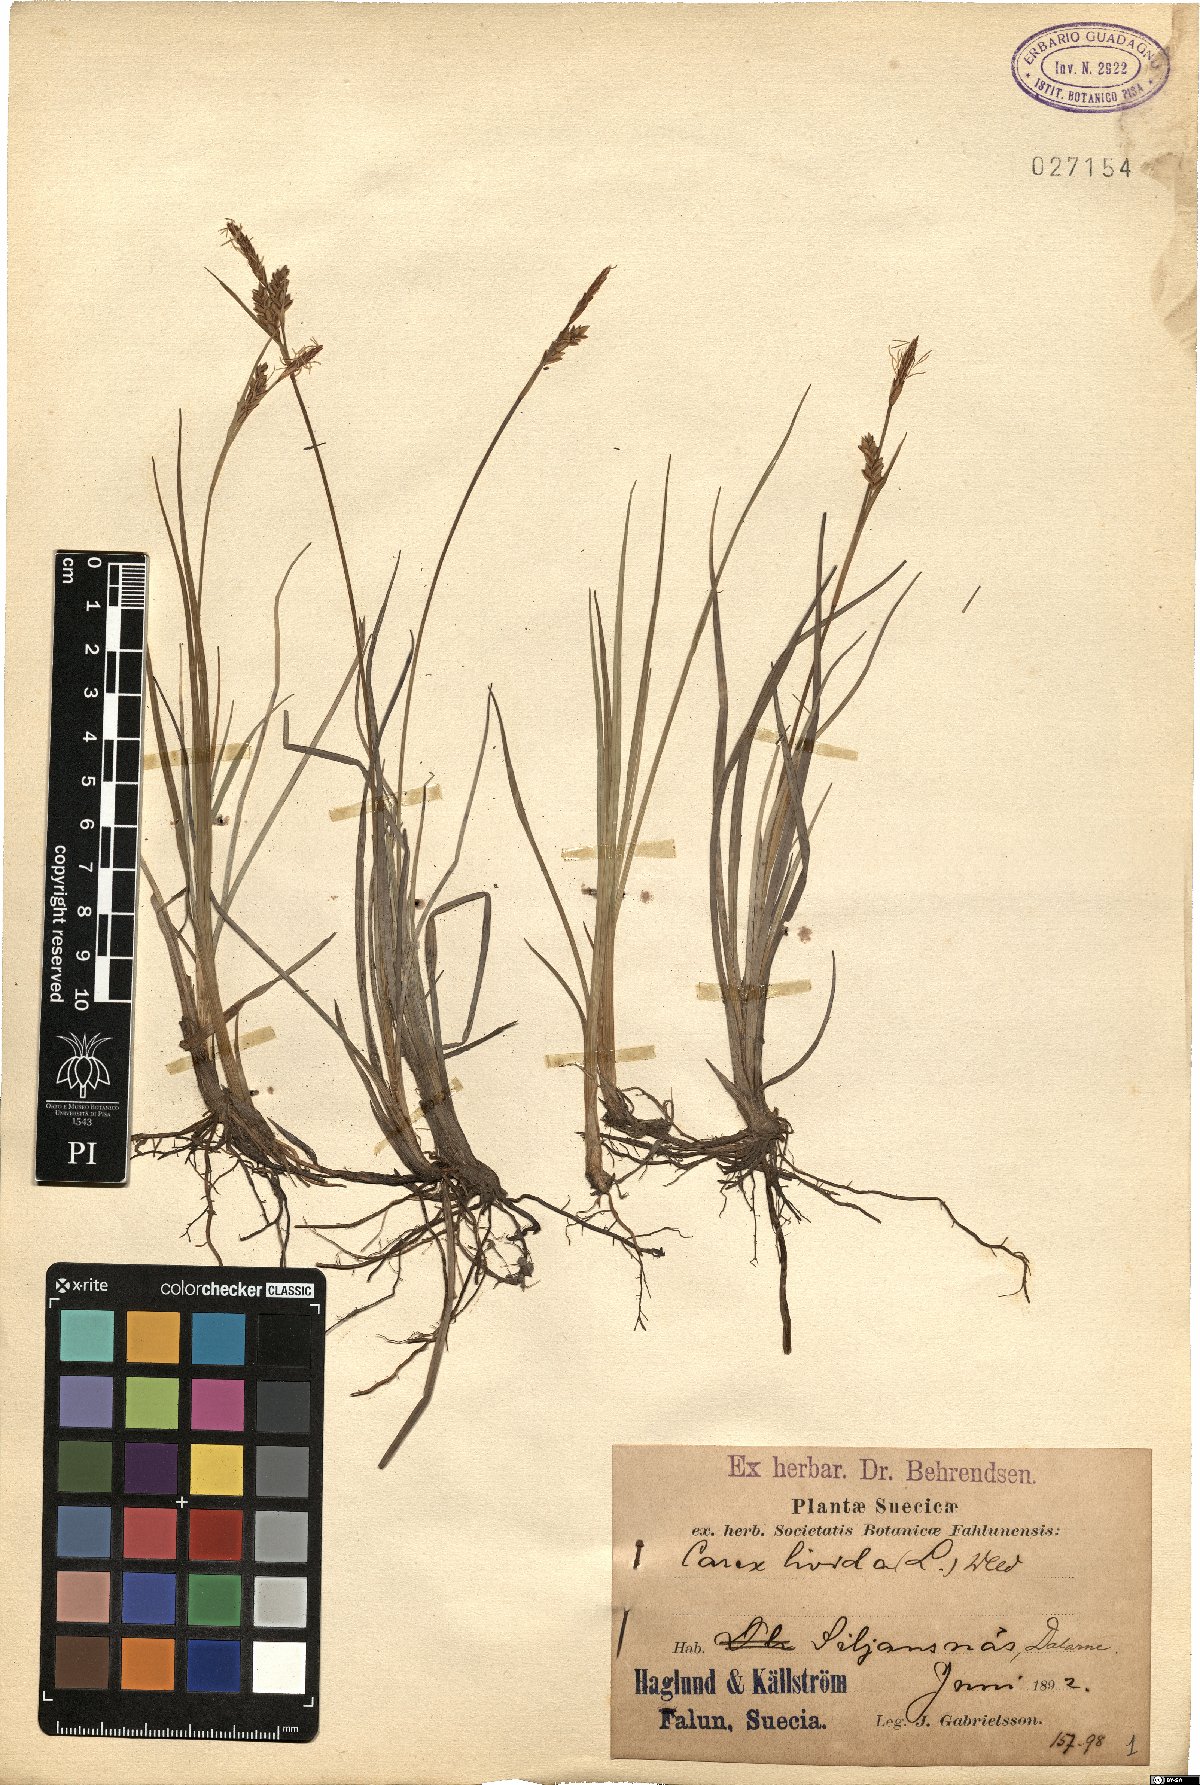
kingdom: Plantae
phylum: Tracheophyta
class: Liliopsida
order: Poales
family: Cyperaceae
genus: Carex
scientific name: Carex livida
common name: Livid sedge
